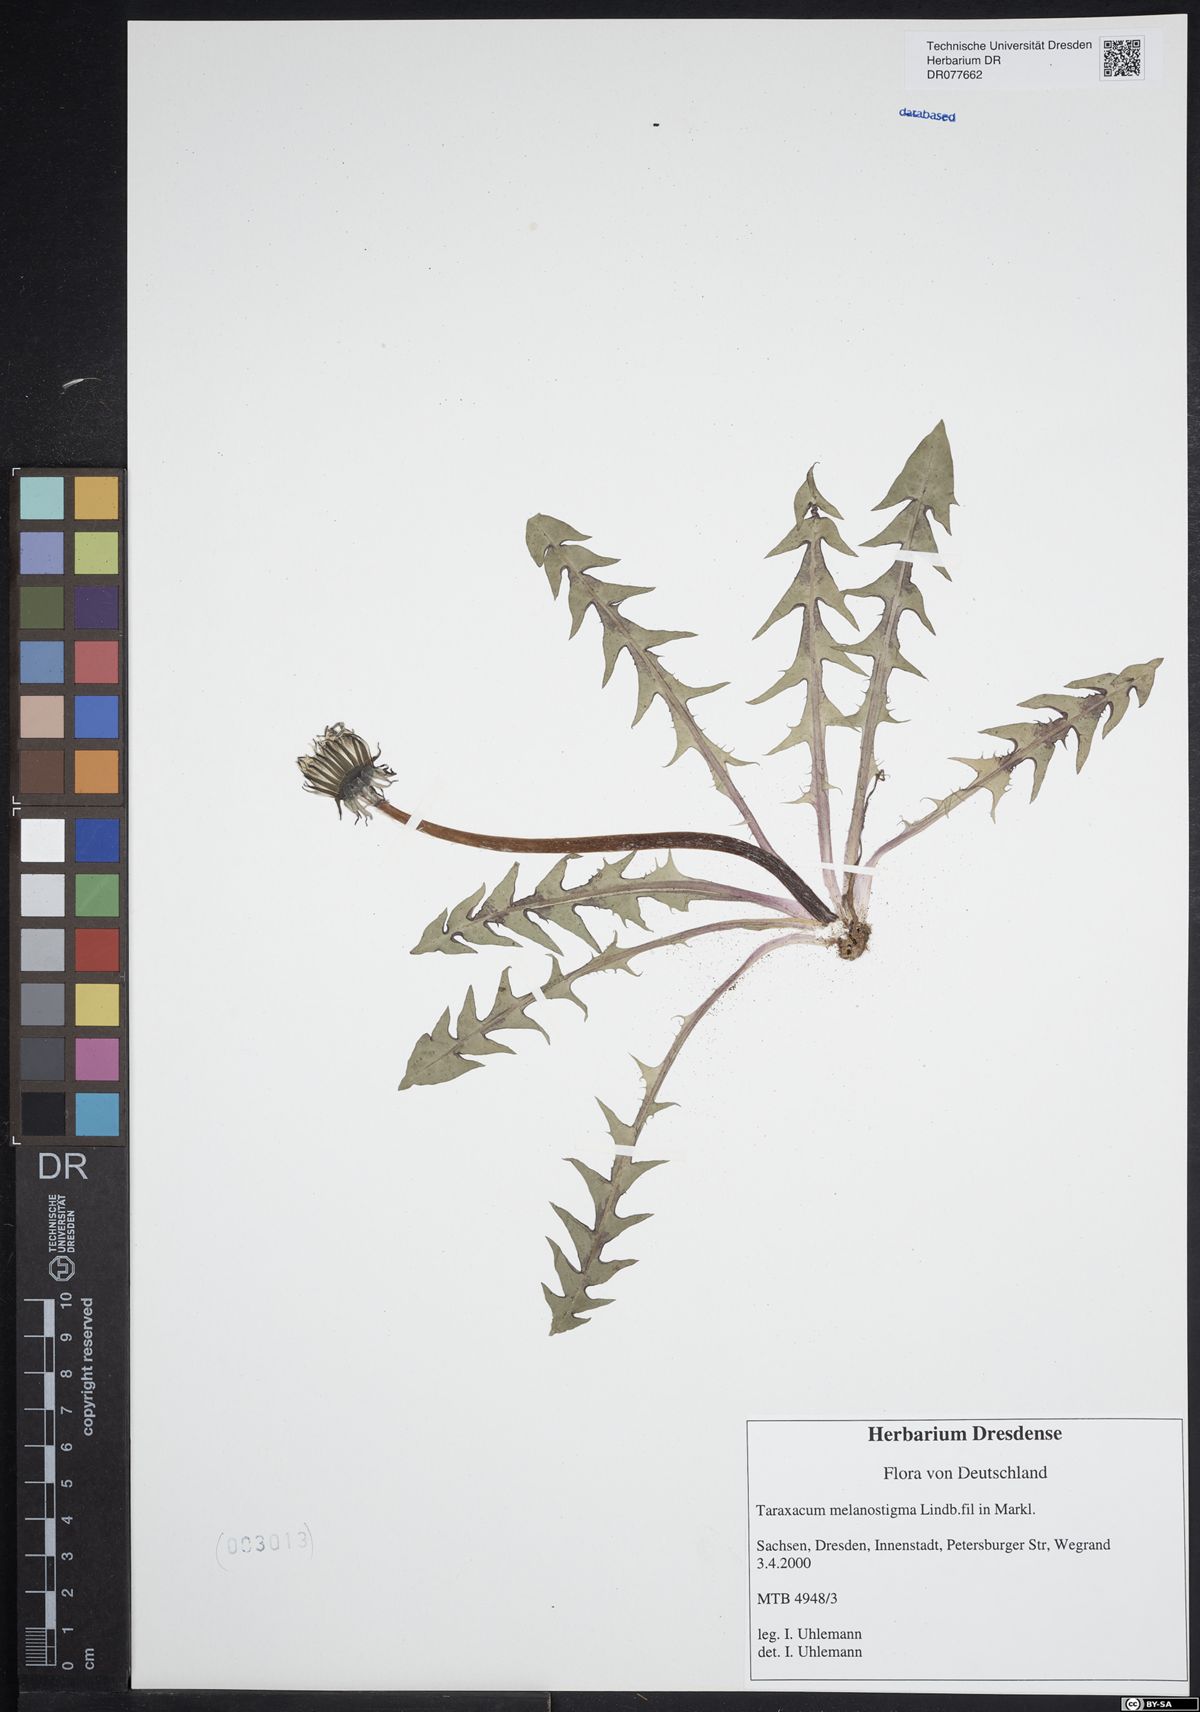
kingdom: Plantae
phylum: Tracheophyta
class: Magnoliopsida
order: Asterales
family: Asteraceae
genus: Taraxacum
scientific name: Taraxacum melanostigma
